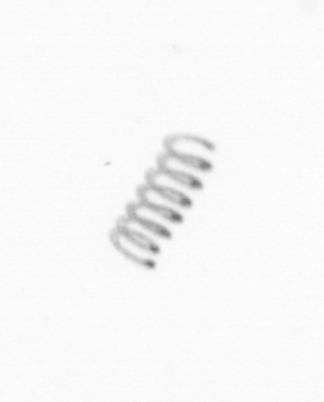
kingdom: Chromista
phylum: Ochrophyta
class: Bacillariophyceae
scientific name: Bacillariophyceae
